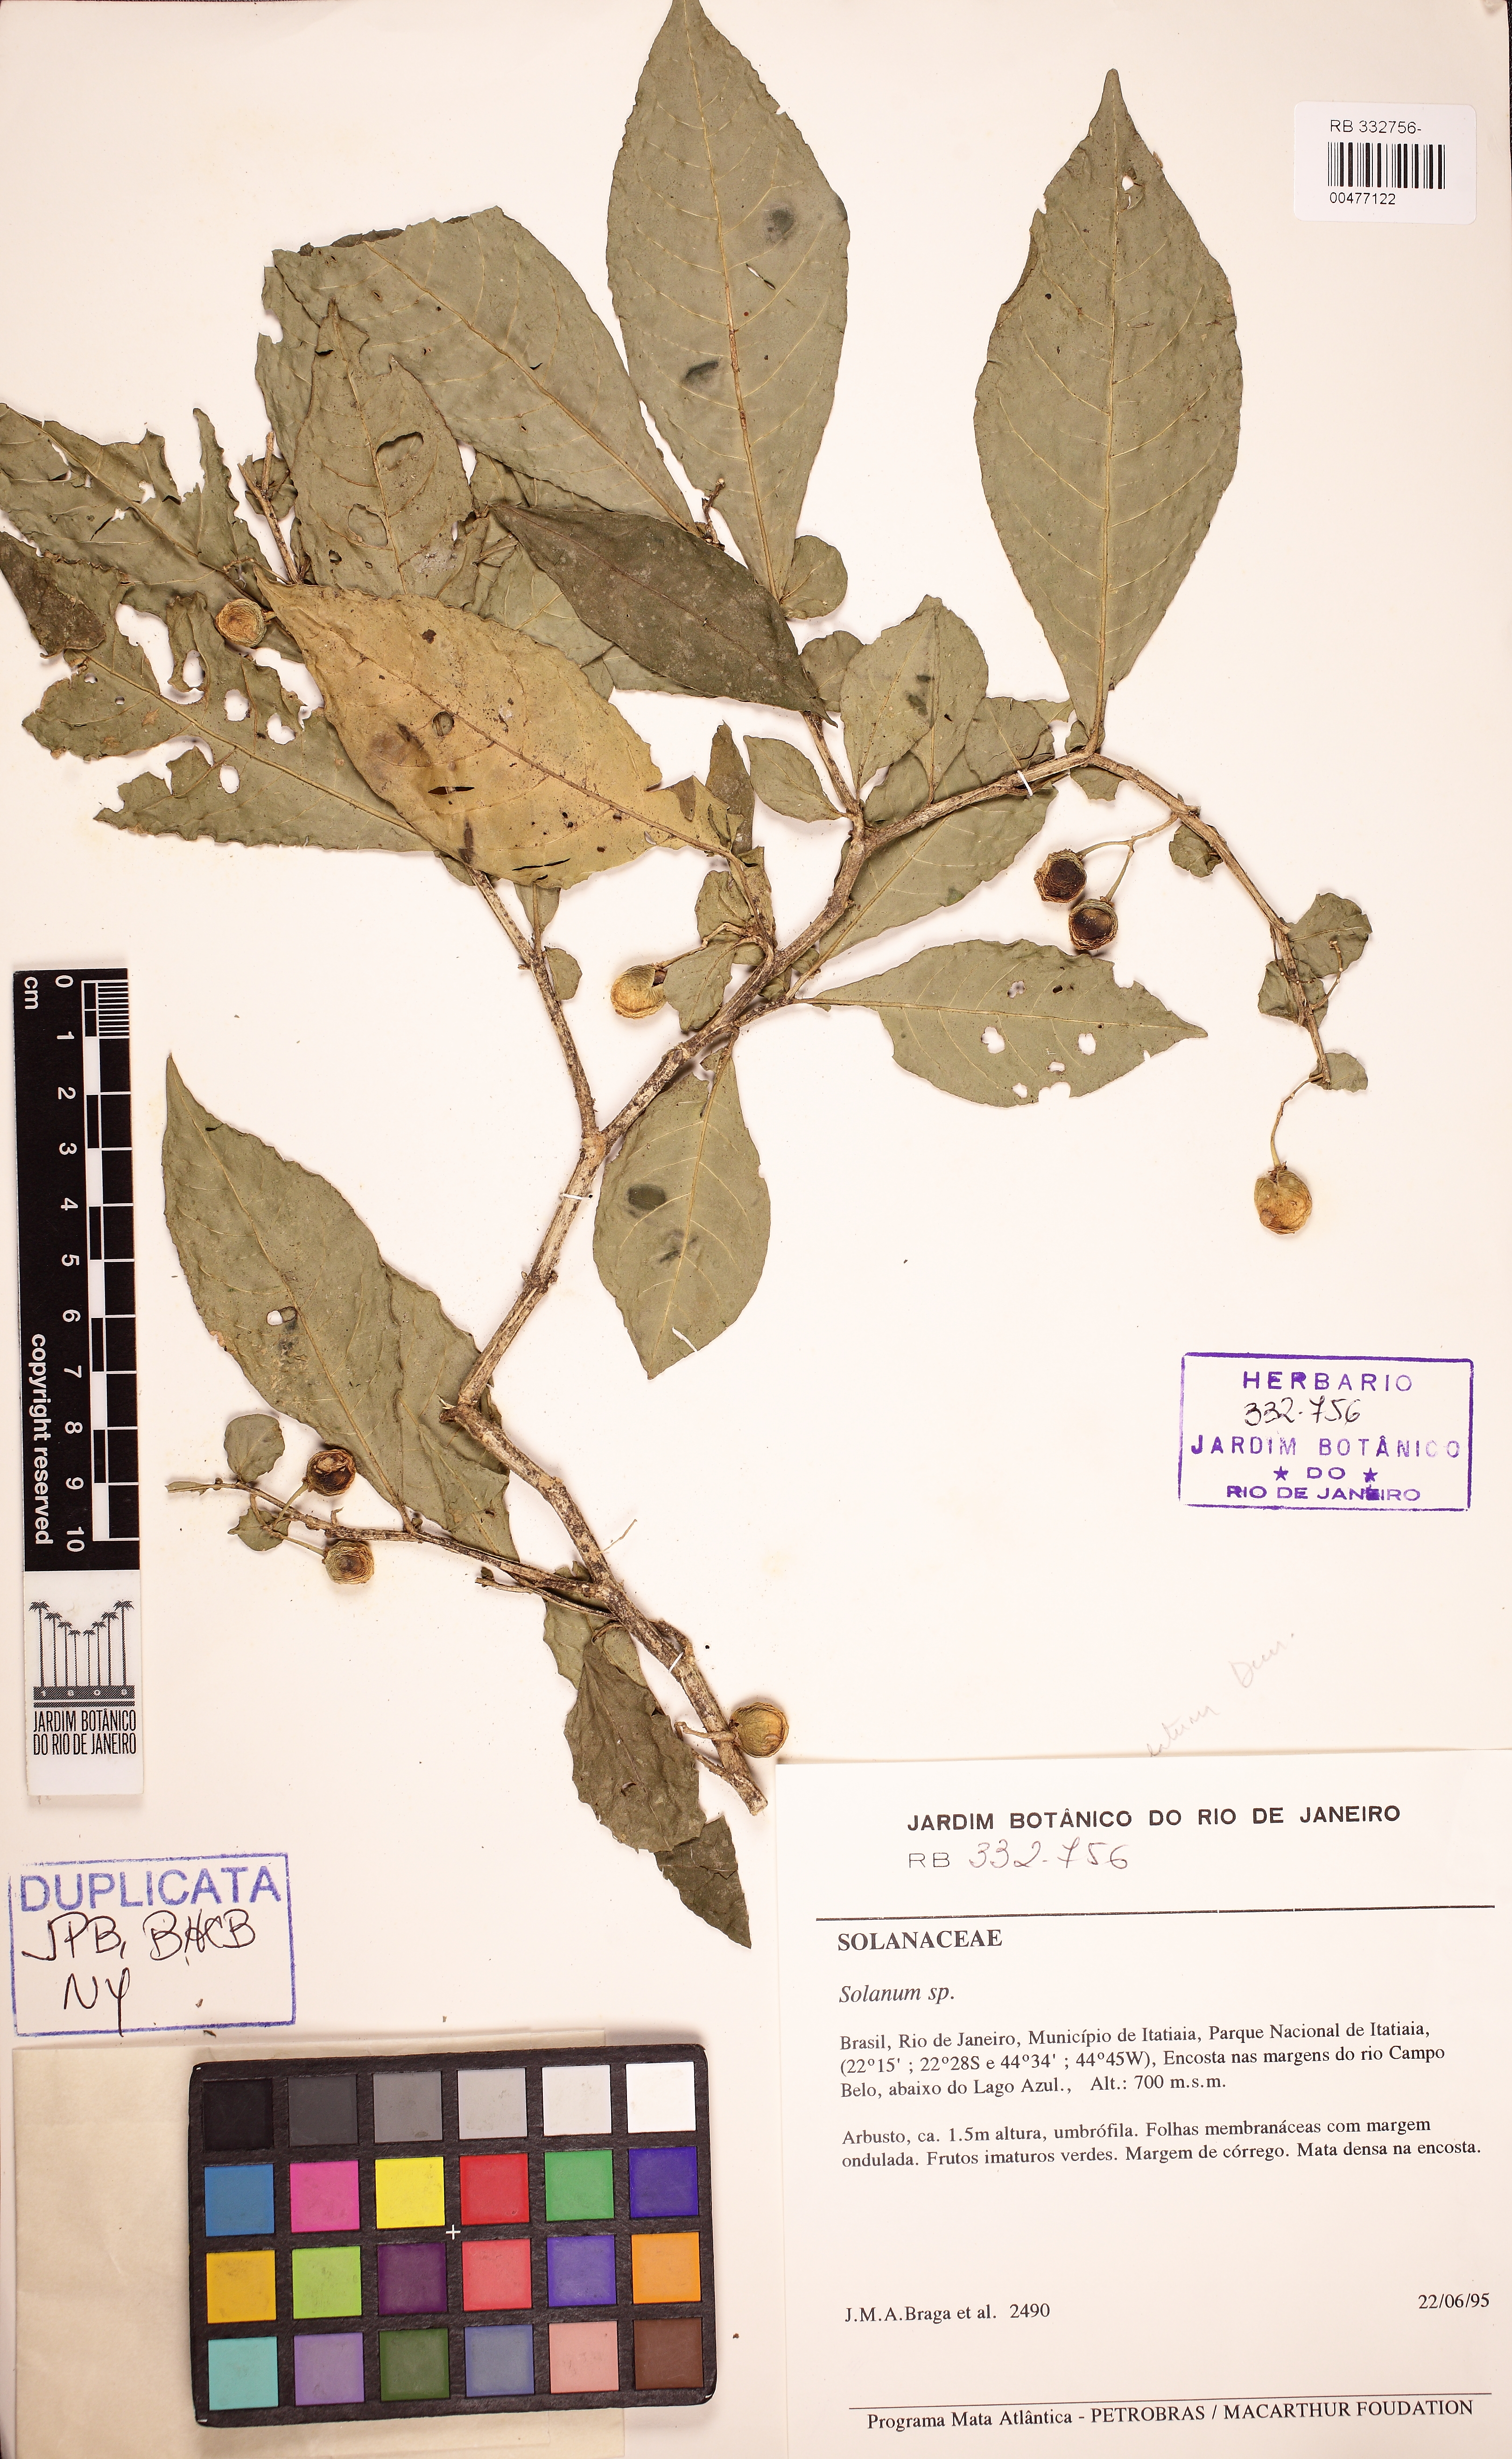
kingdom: Plantae
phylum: Tracheophyta
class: Magnoliopsida
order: Solanales
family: Solanaceae
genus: Solanum
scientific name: Solanum stipulatum
